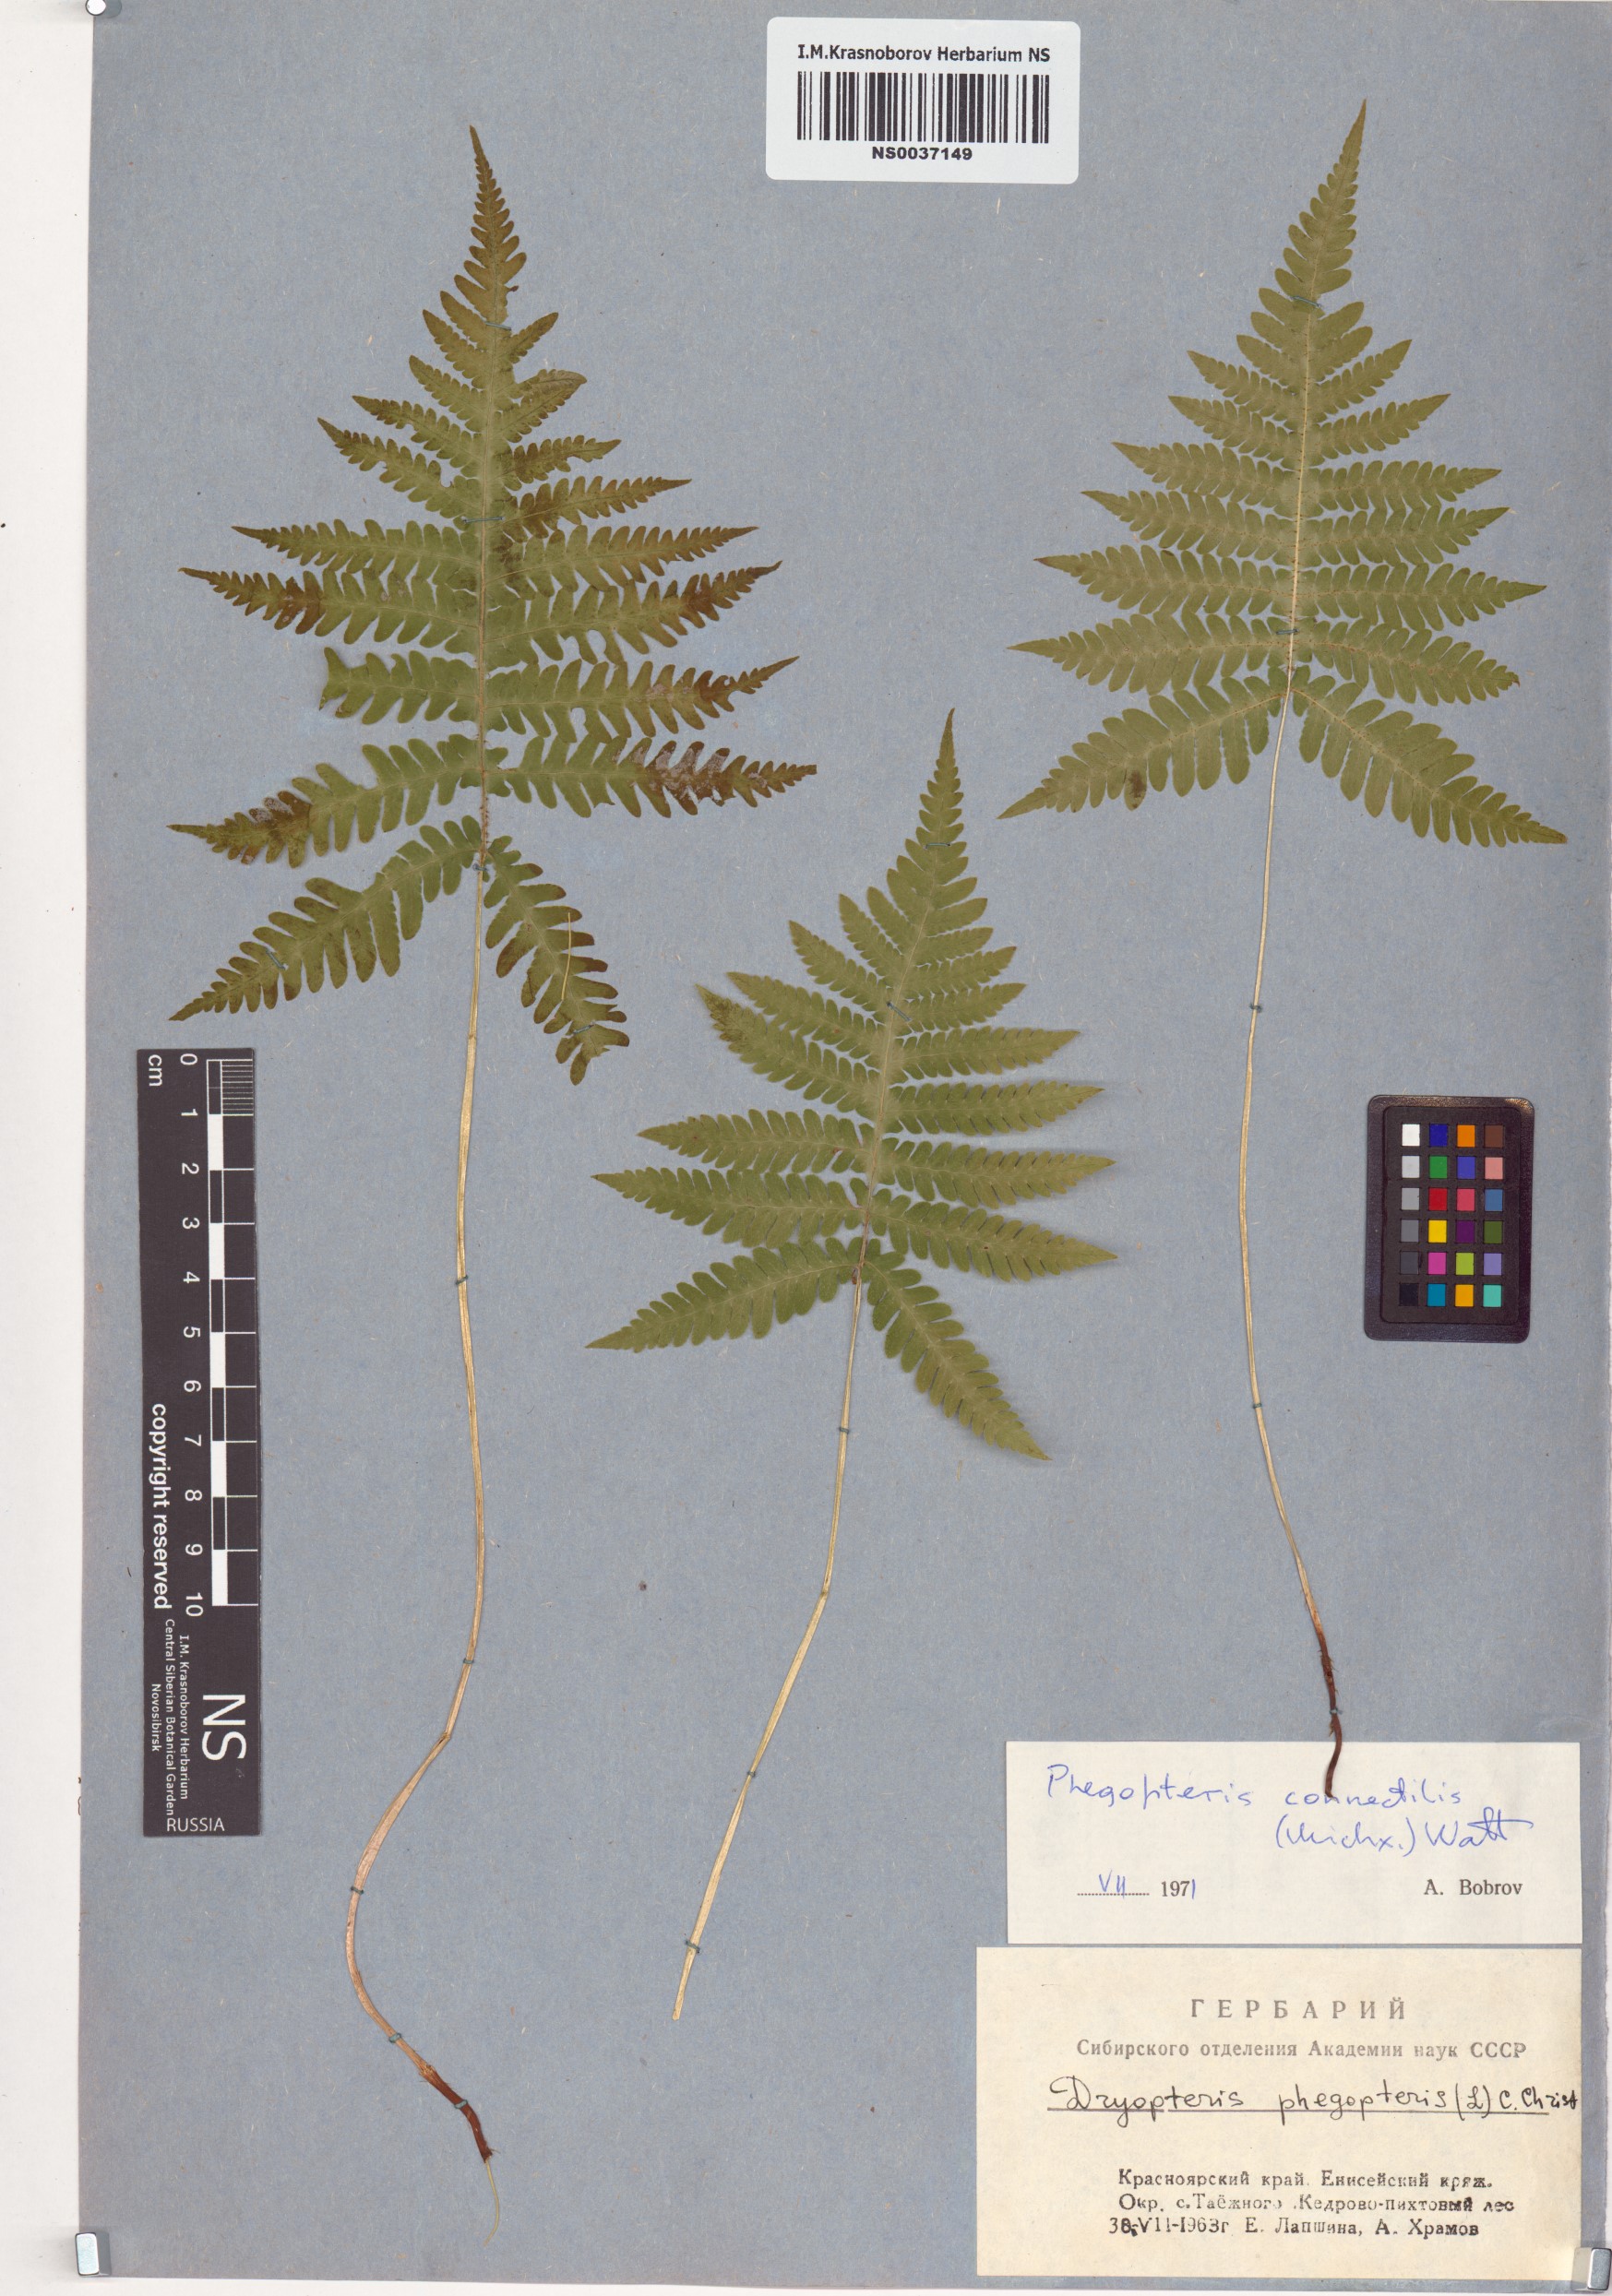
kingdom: Plantae
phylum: Tracheophyta
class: Polypodiopsida
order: Polypodiales
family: Thelypteridaceae
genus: Phegopteris
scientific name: Phegopteris connectilis
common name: Beech fern
